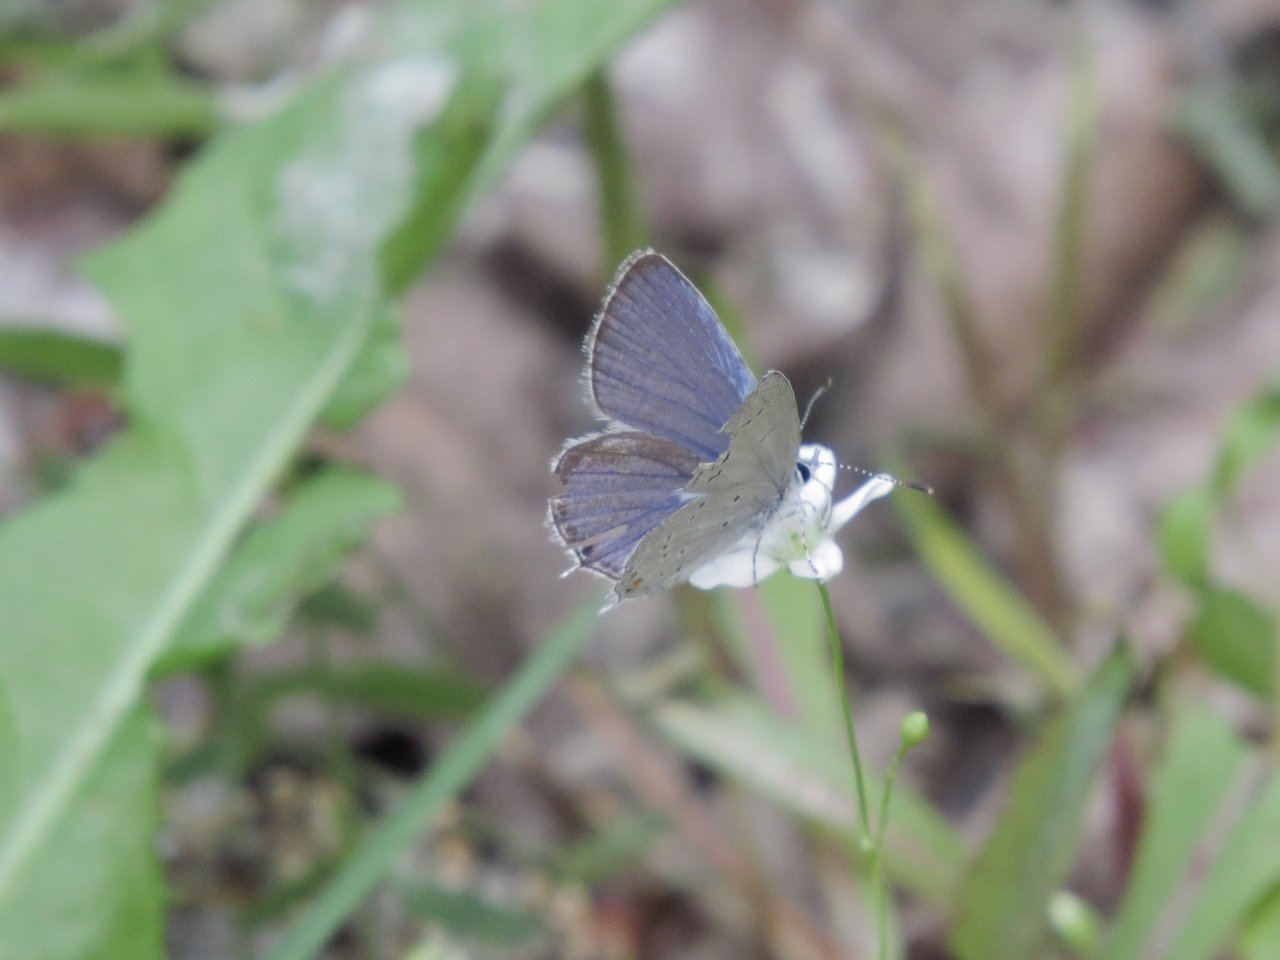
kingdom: Animalia
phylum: Arthropoda
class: Insecta
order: Lepidoptera
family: Lycaenidae
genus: Elkalyce
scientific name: Elkalyce amyntula
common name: Western Tailed-Blue
